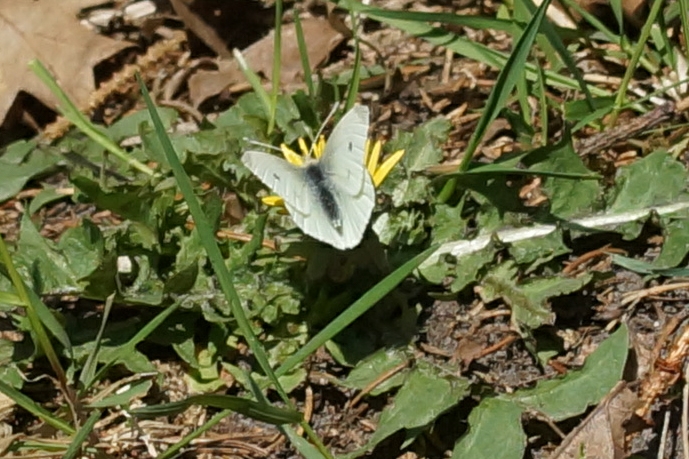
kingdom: Animalia
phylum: Arthropoda
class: Insecta
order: Lepidoptera
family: Pieridae
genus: Pieris
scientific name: Pieris rapae
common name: Lille kålsommerfugl
